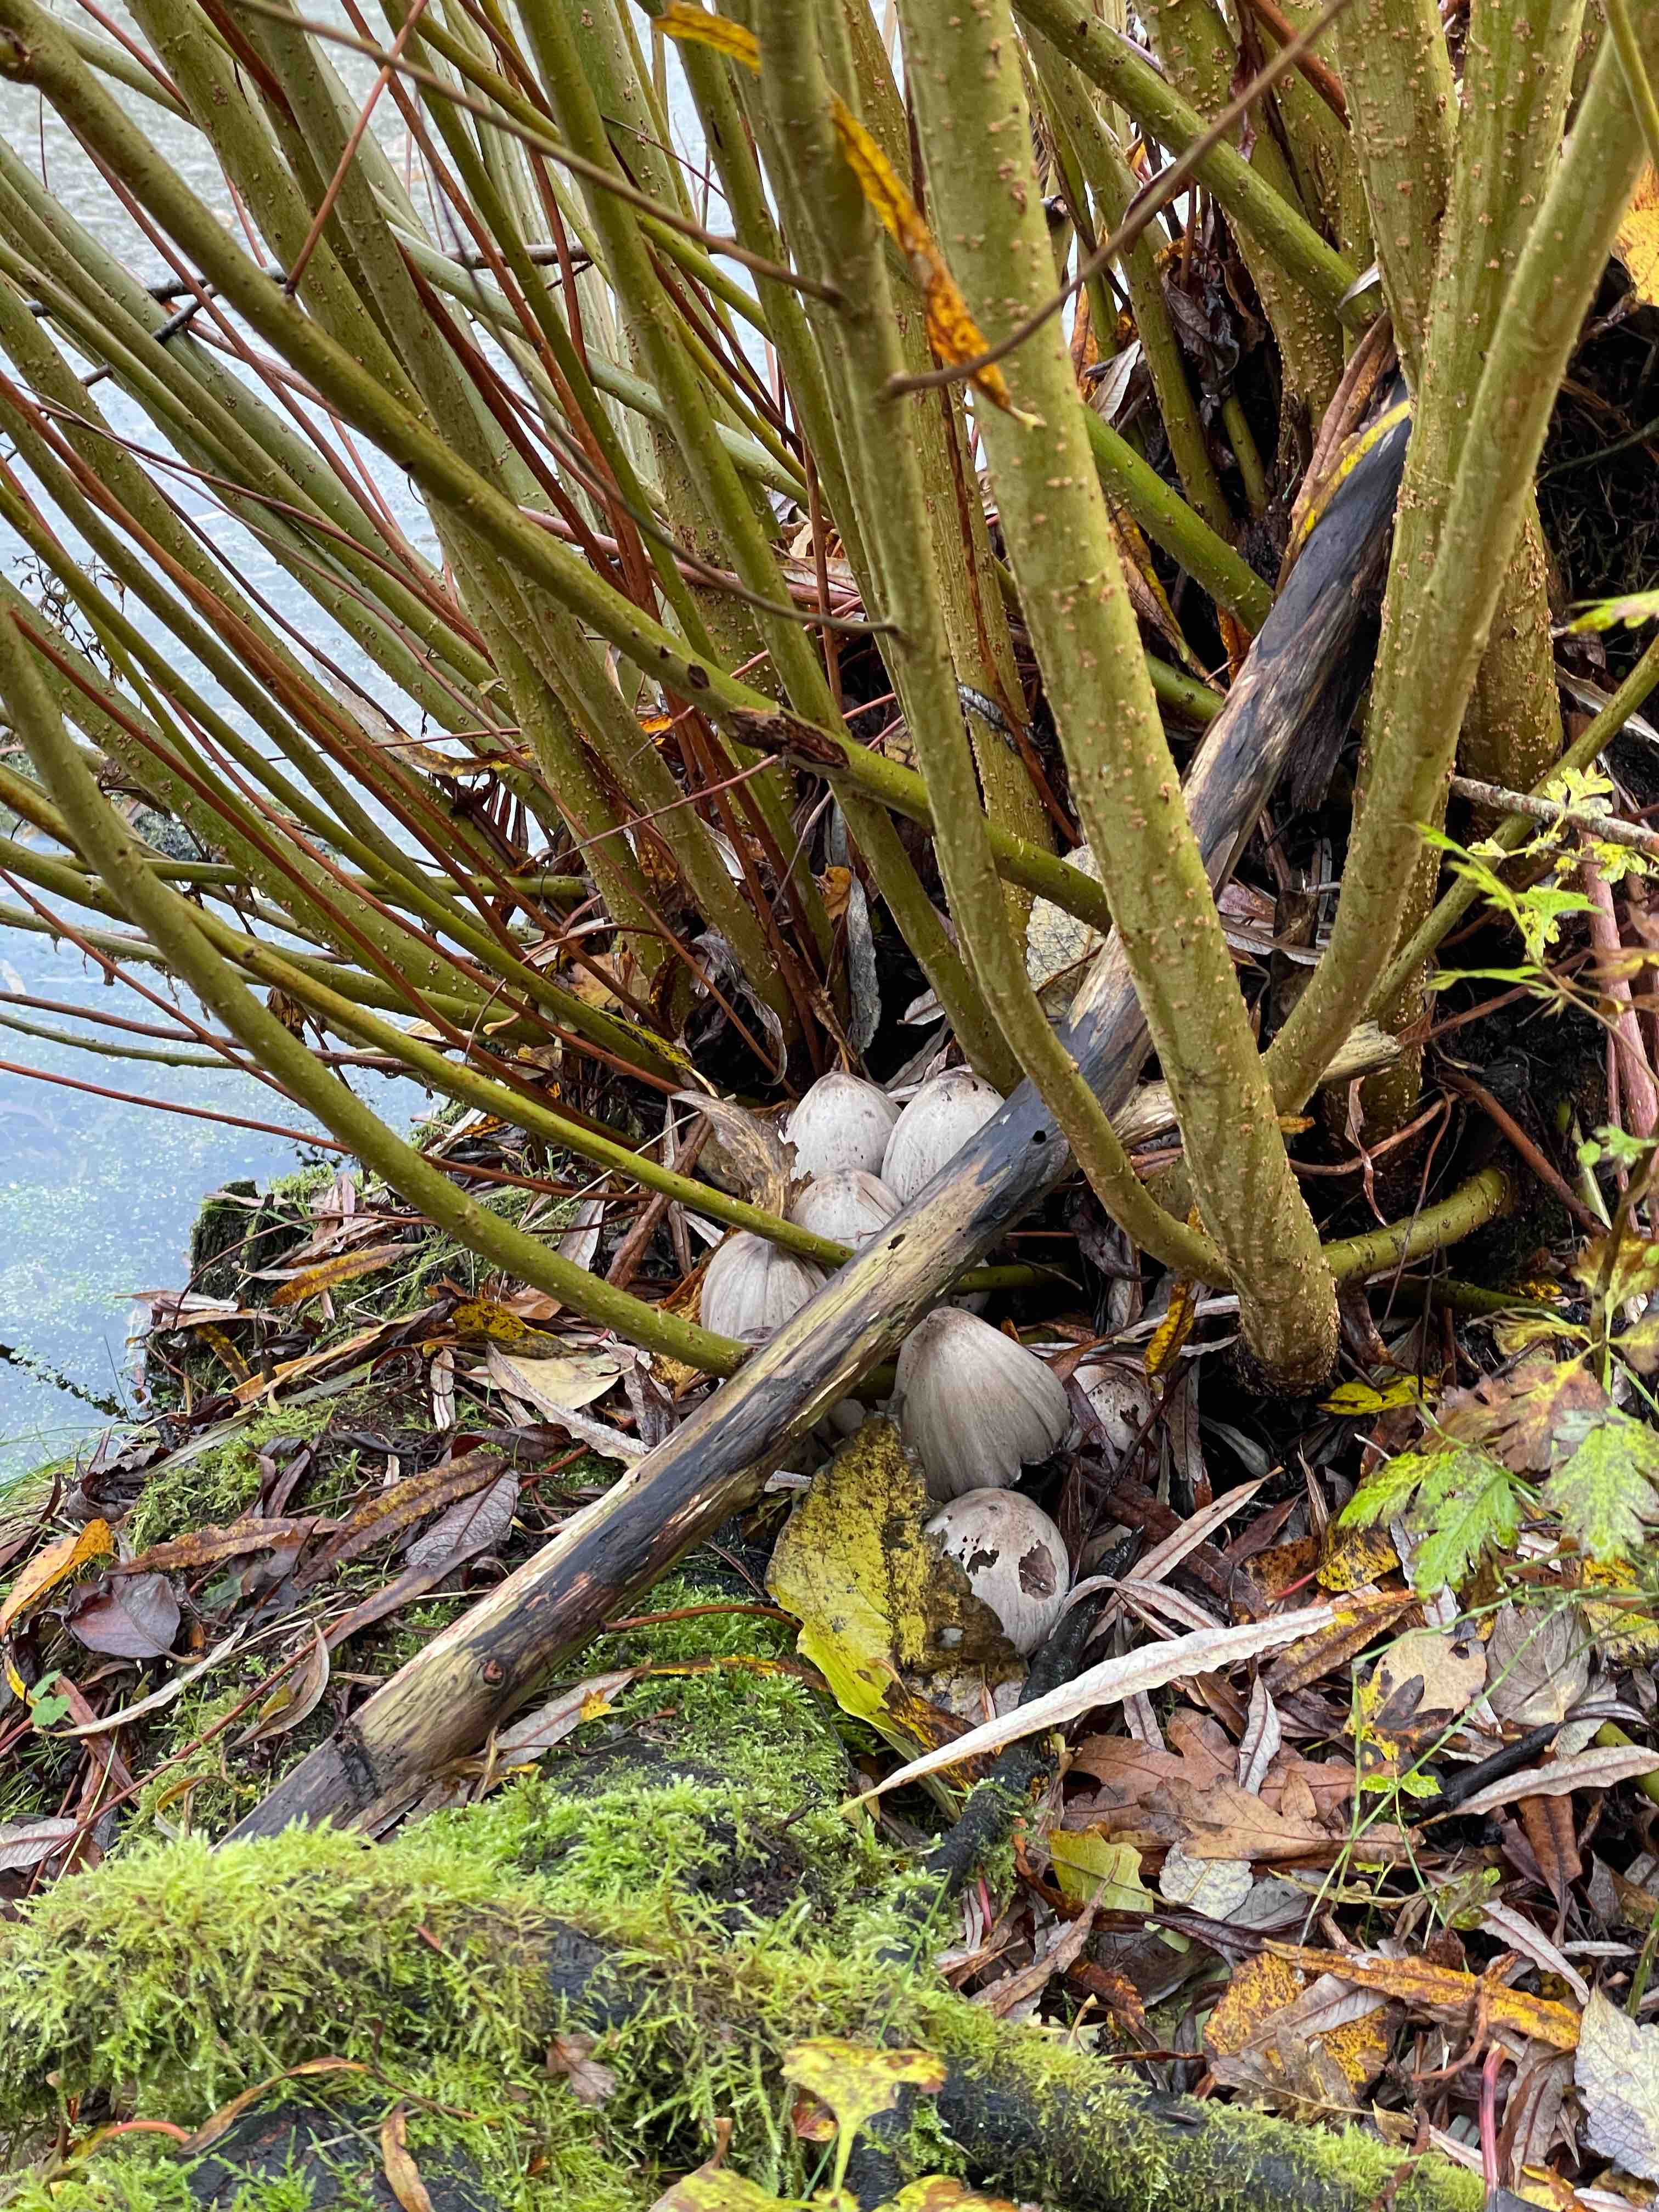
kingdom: Fungi
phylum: Basidiomycota
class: Agaricomycetes
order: Agaricales
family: Psathyrellaceae
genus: Coprinopsis
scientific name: Coprinopsis atramentaria
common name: almindelig blækhat
